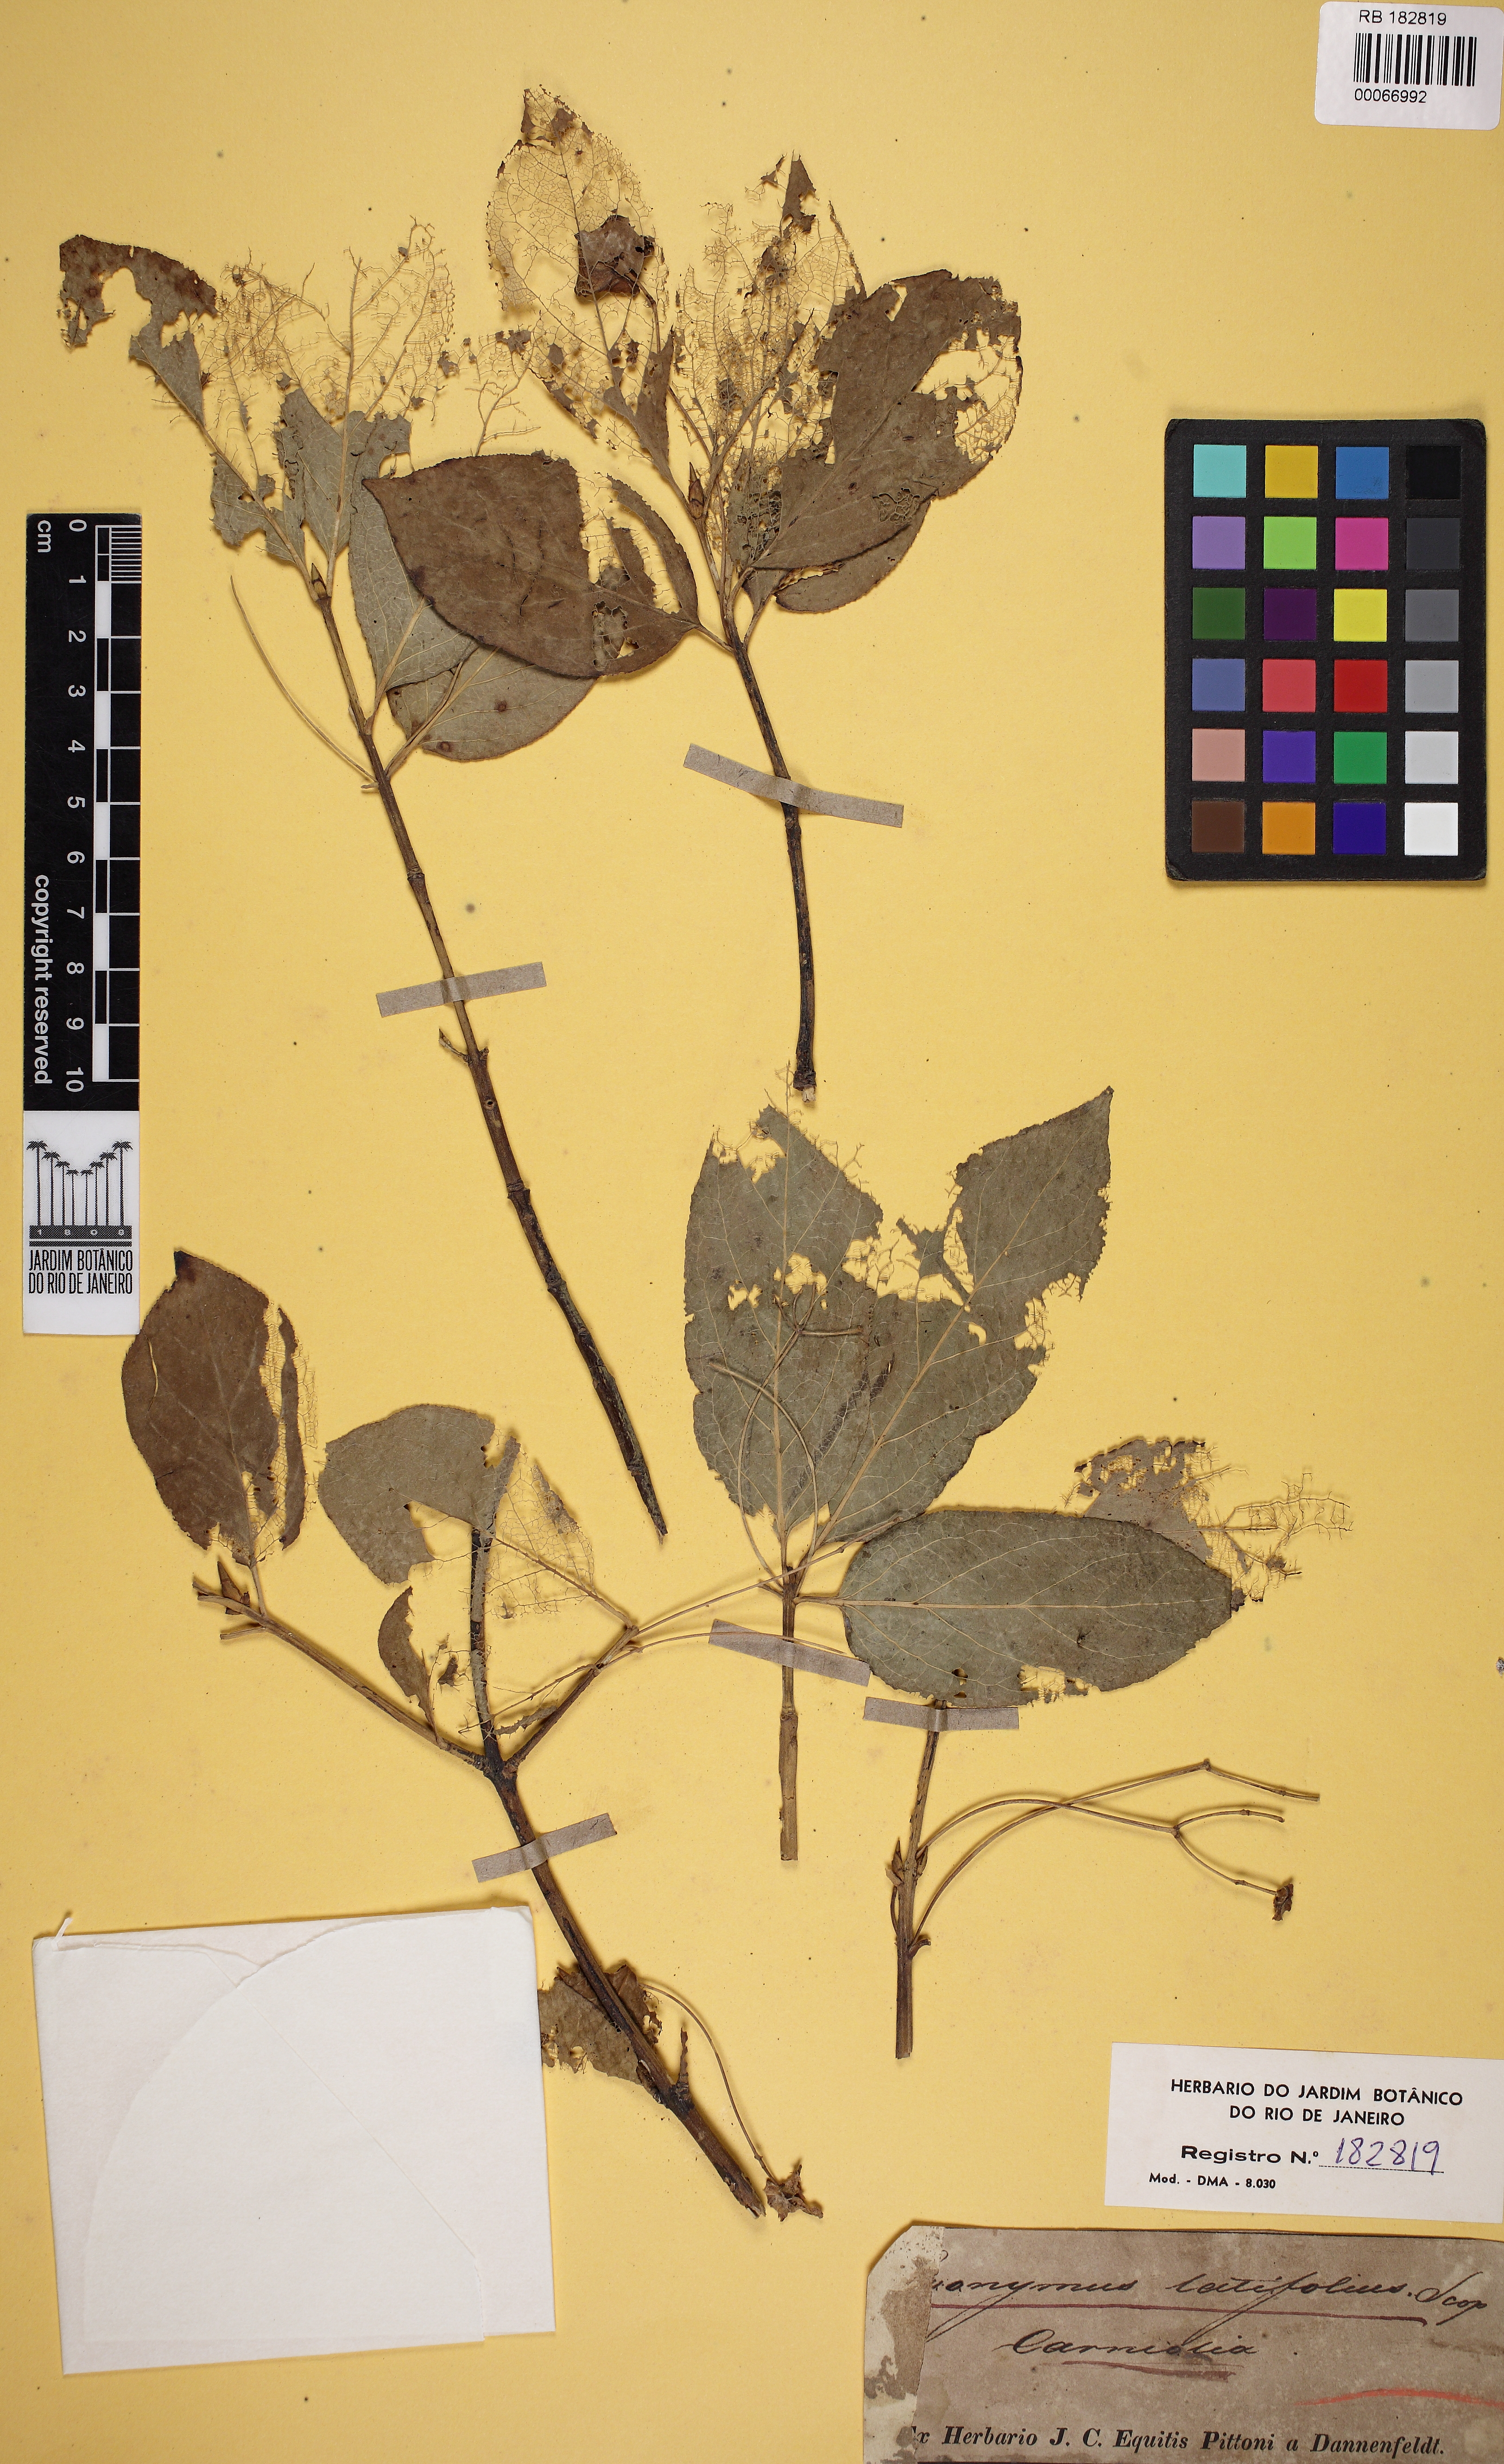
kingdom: Plantae
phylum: Tracheophyta
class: Magnoliopsida
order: Celastrales
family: Celastraceae
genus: Euonymus
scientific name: Euonymus latifolius
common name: Large-leaved spindle
